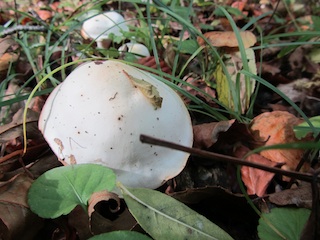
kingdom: Fungi
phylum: Basidiomycota
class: Agaricomycetes
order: Agaricales
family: Hygrophoraceae
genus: Hygrophorus
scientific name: Hygrophorus discoxanthus
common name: ildelugtende sneglehat
